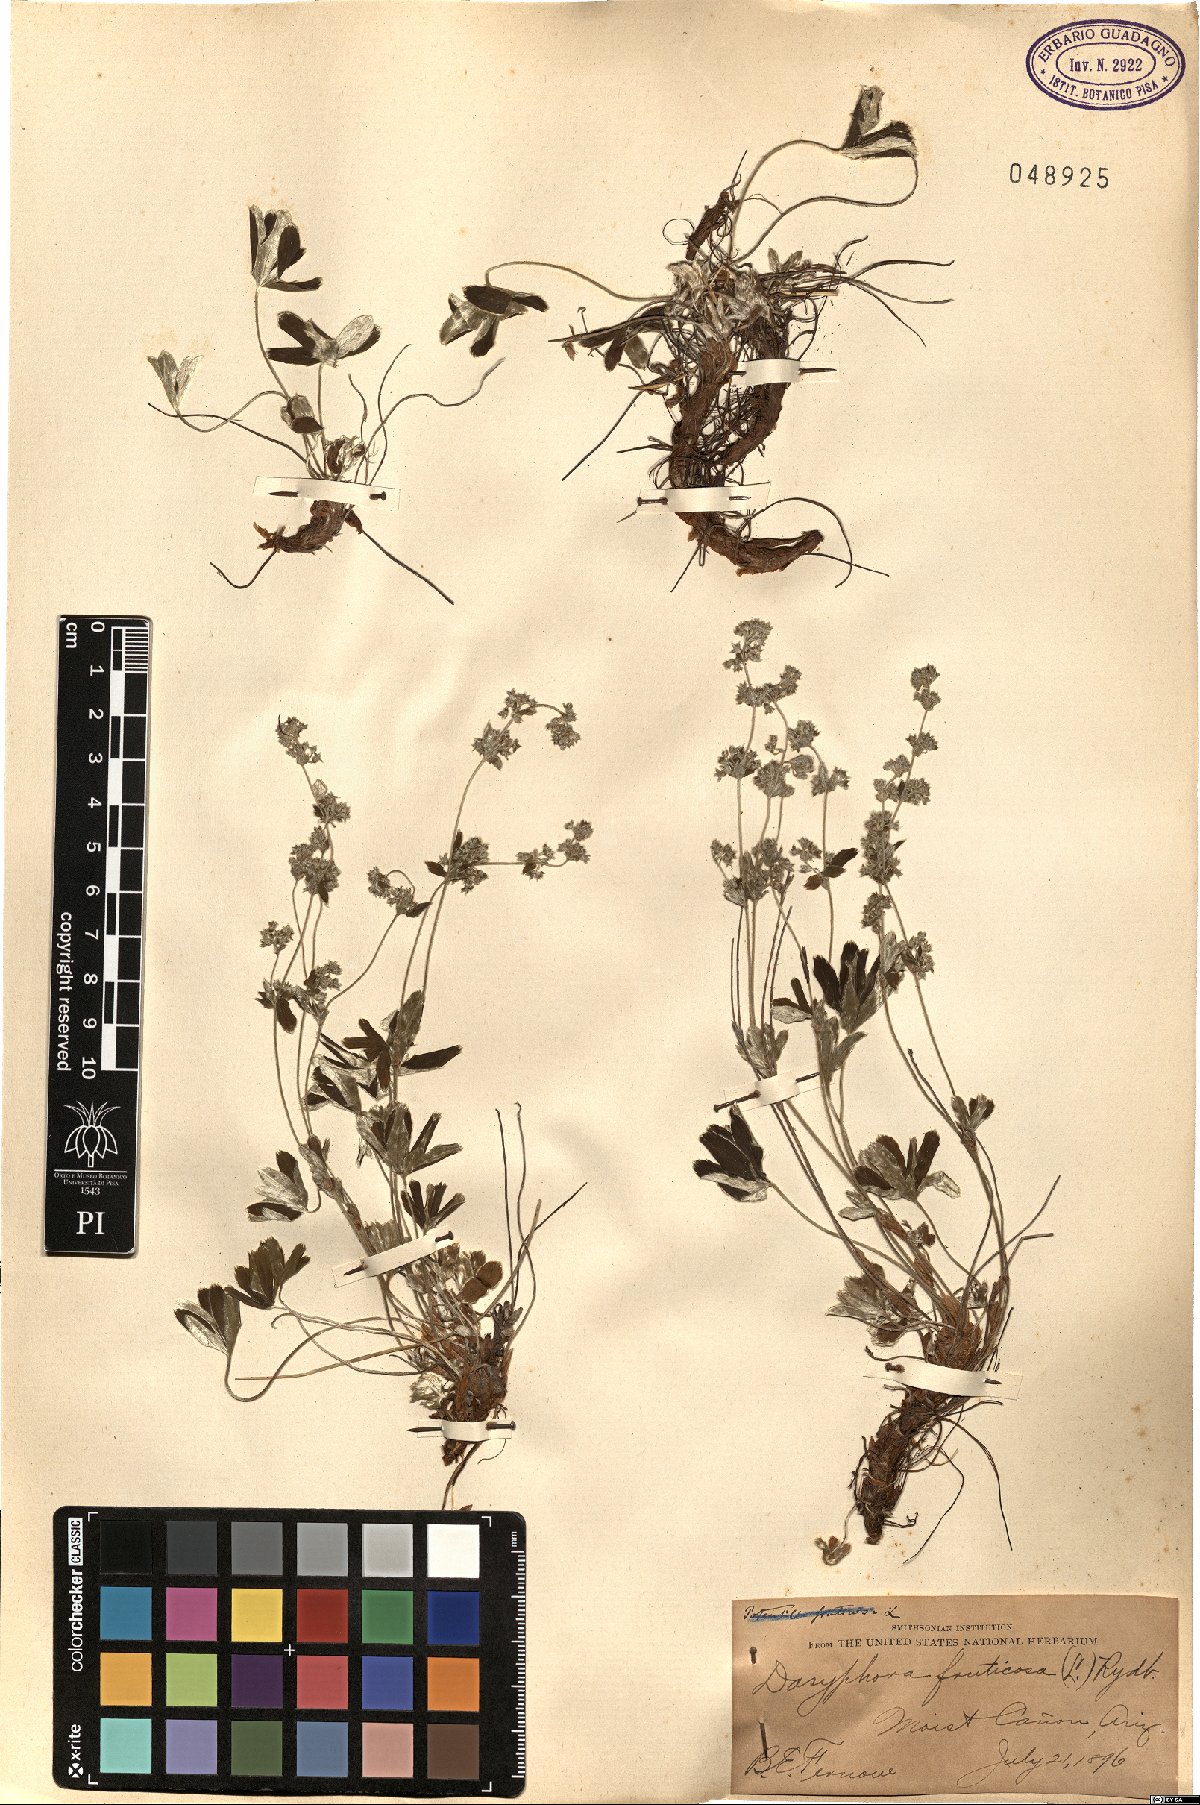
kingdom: Plantae
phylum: Tracheophyta
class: Magnoliopsida
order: Rosales
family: Rosaceae
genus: Dasiphora
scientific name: Dasiphora fruticosa
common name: Shrubby cinquefoil
